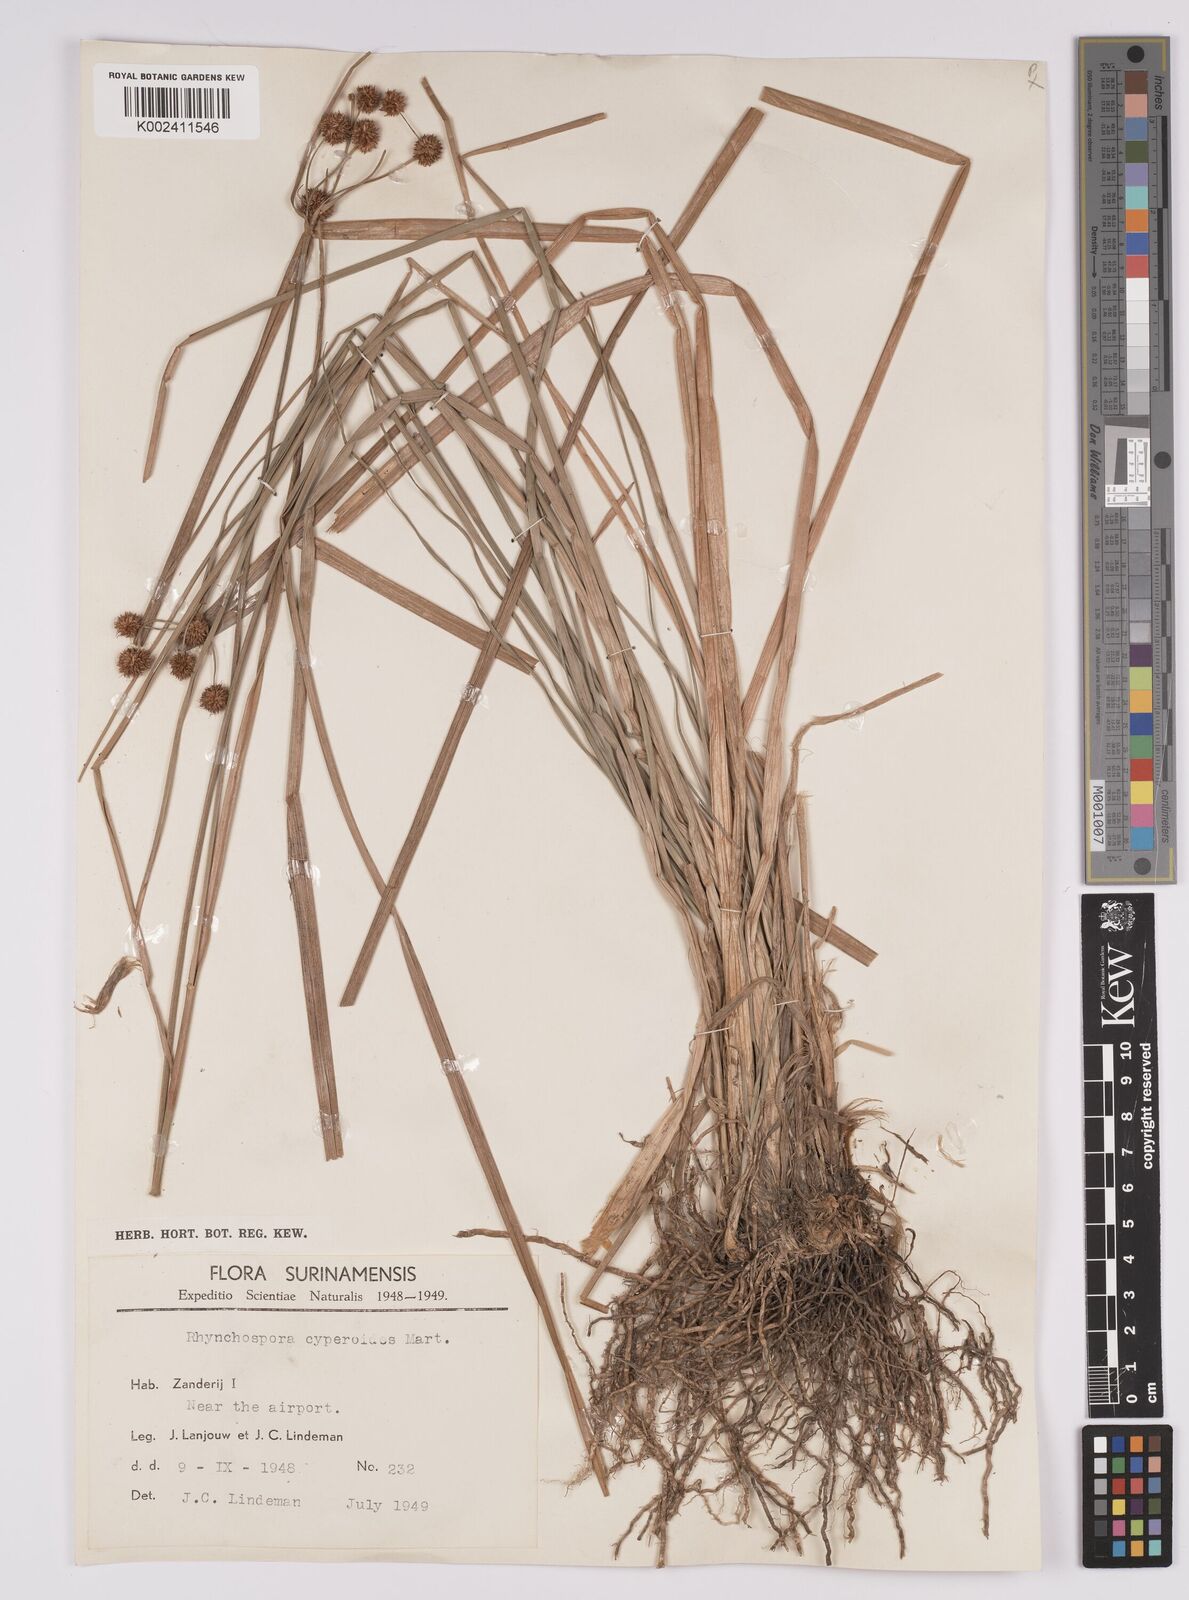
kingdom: Plantae
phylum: Tracheophyta
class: Liliopsida
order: Poales
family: Cyperaceae
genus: Rhynchospora
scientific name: Rhynchospora holoschoenoides
